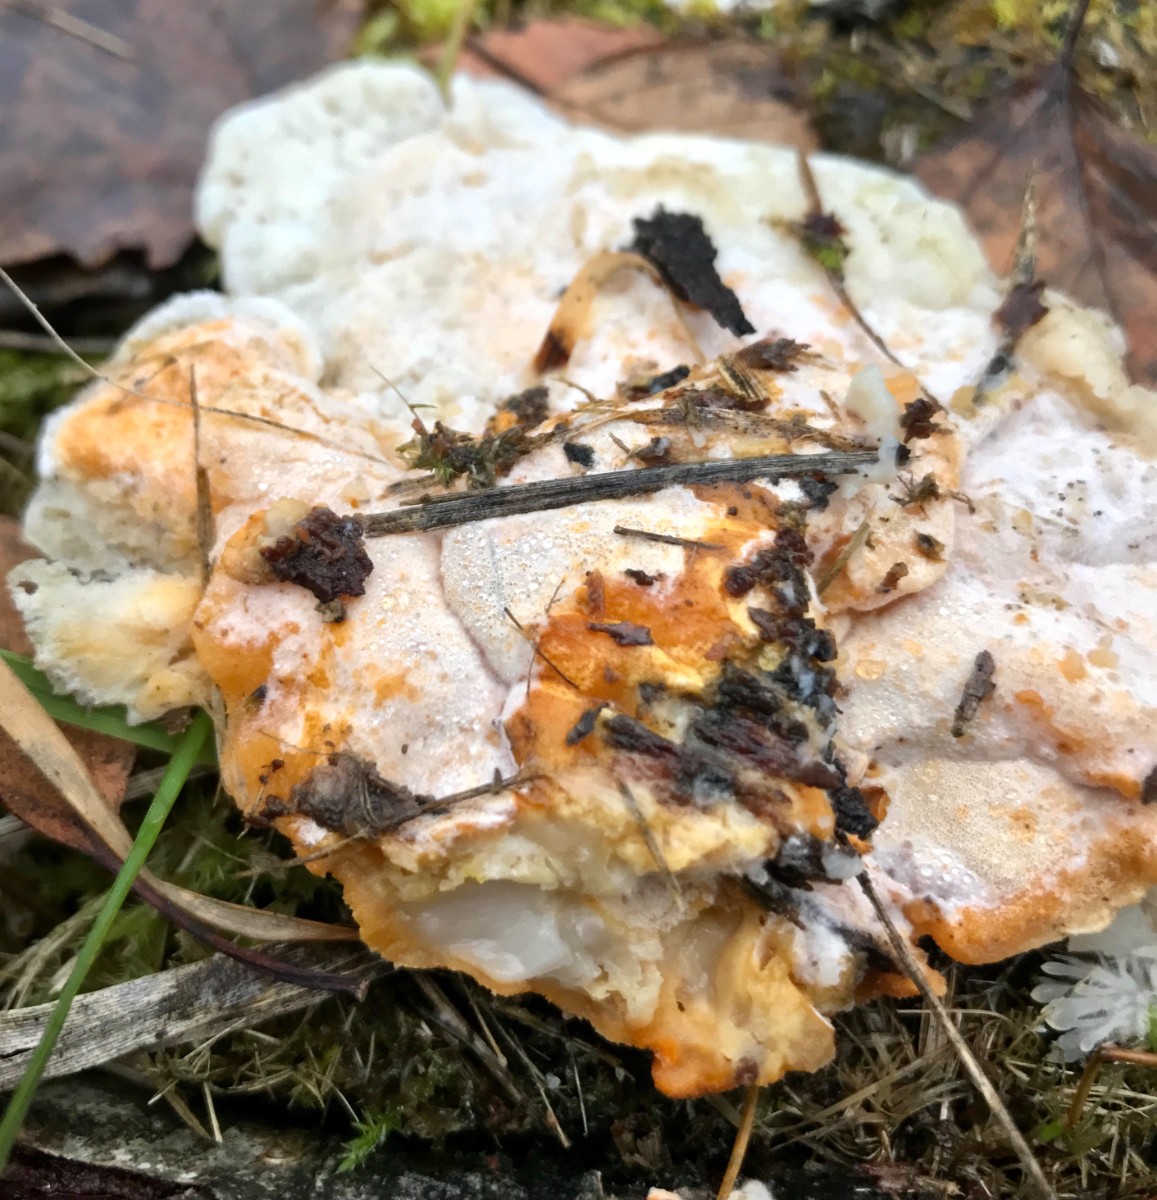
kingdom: Fungi
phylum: Ascomycota
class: Sordariomycetes
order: Hypocreales
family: Hypocreaceae
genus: Protocrea
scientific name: Protocrea pallida
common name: bleg kødkerne
